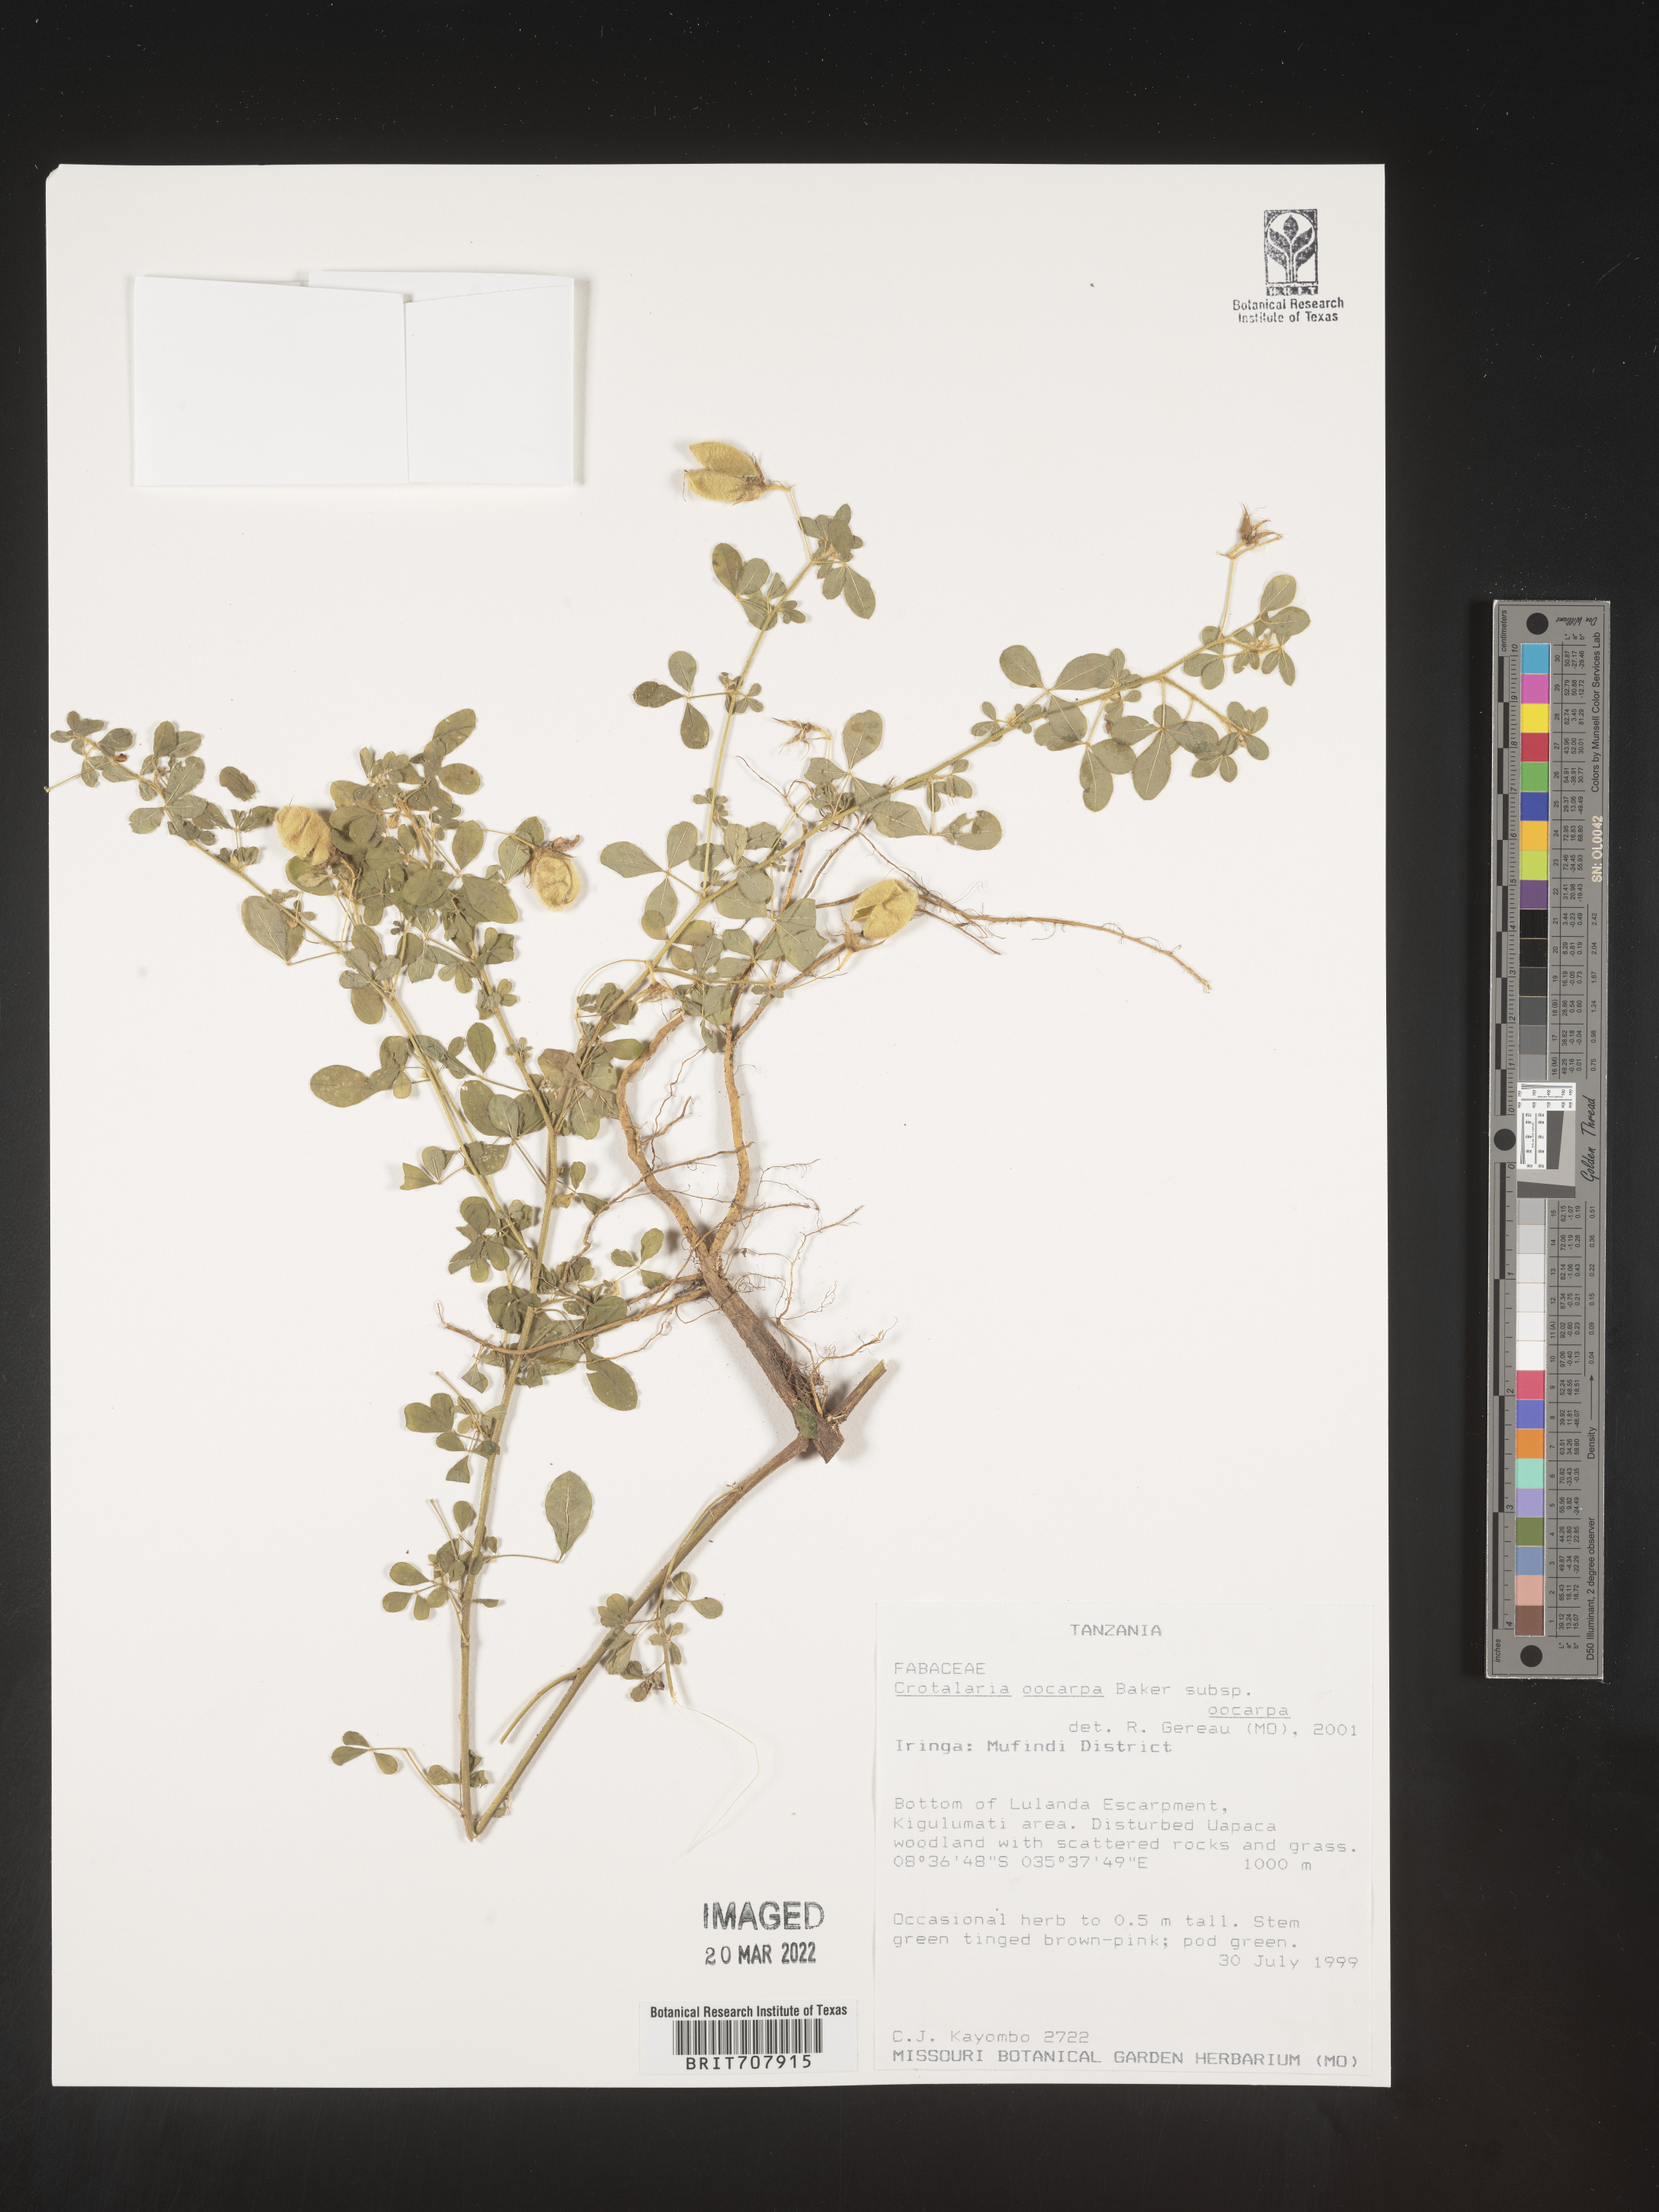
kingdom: Plantae
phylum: Tracheophyta
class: Magnoliopsida
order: Fabales
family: Fabaceae
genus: Crotalaria
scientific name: Crotalaria
